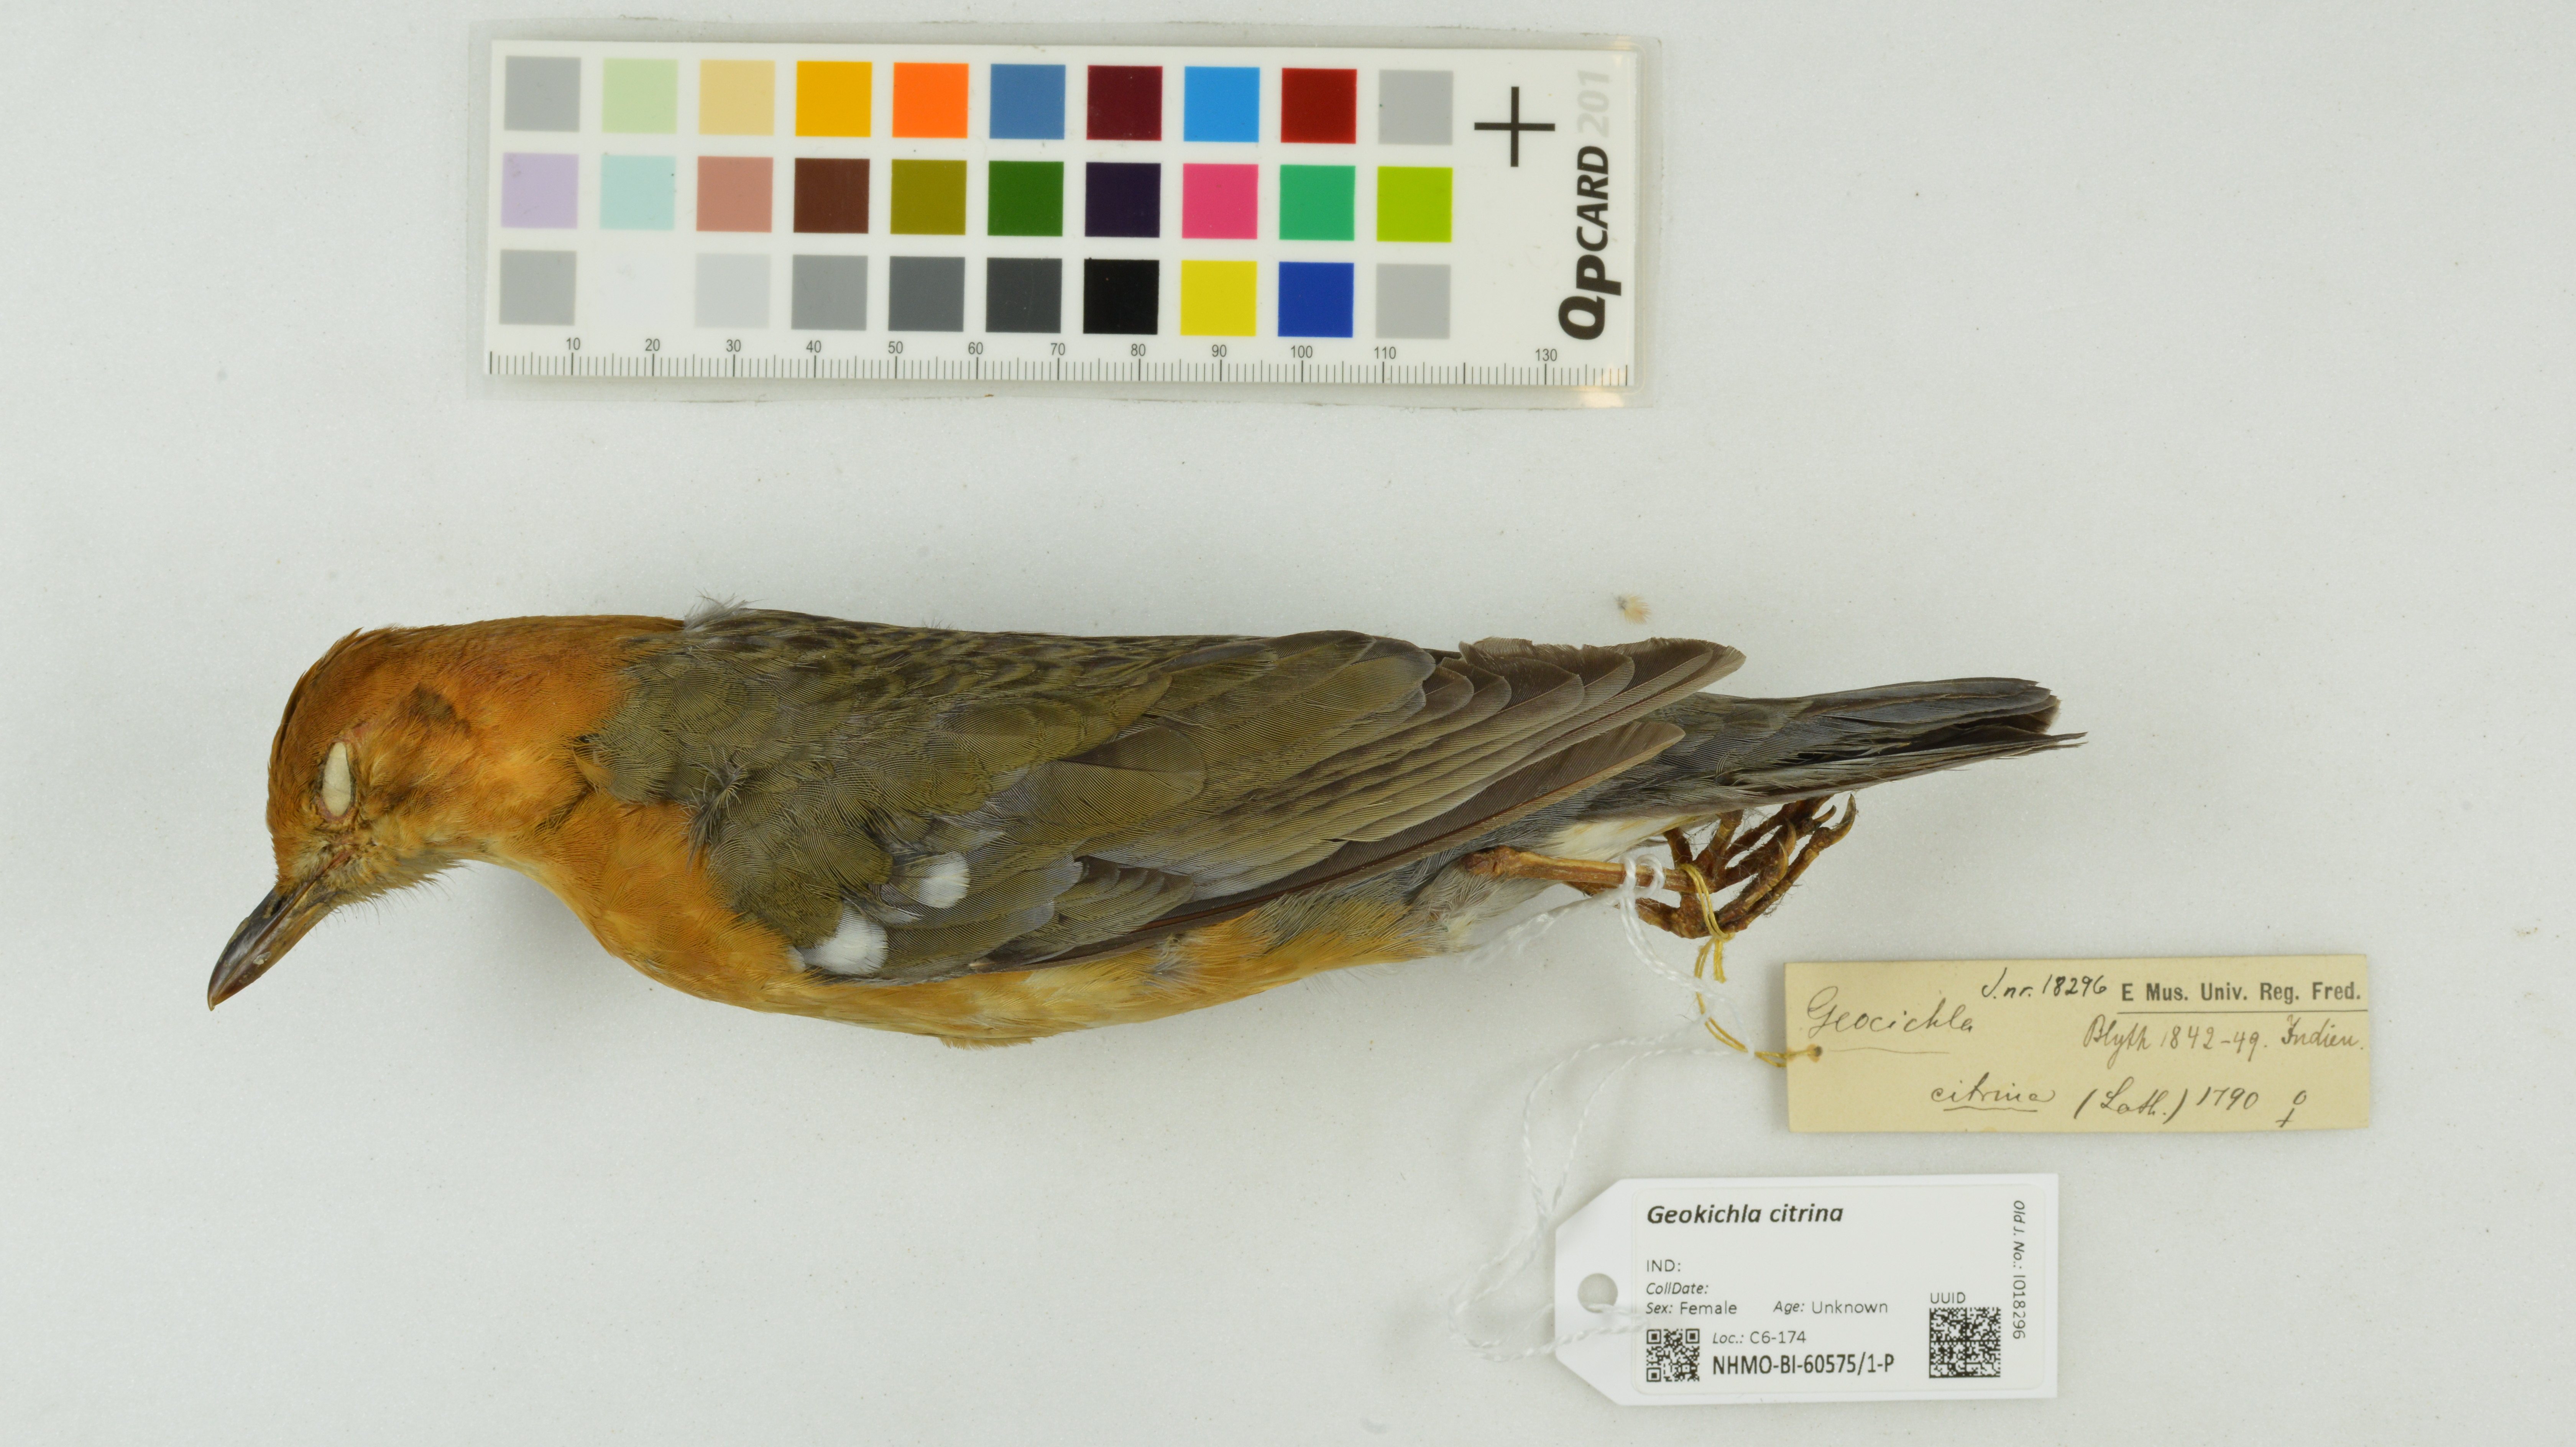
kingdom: Animalia
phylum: Chordata
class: Aves
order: Passeriformes
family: Turdidae
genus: Geokichla
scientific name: Geokichla citrina
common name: Orange-headed thrush
